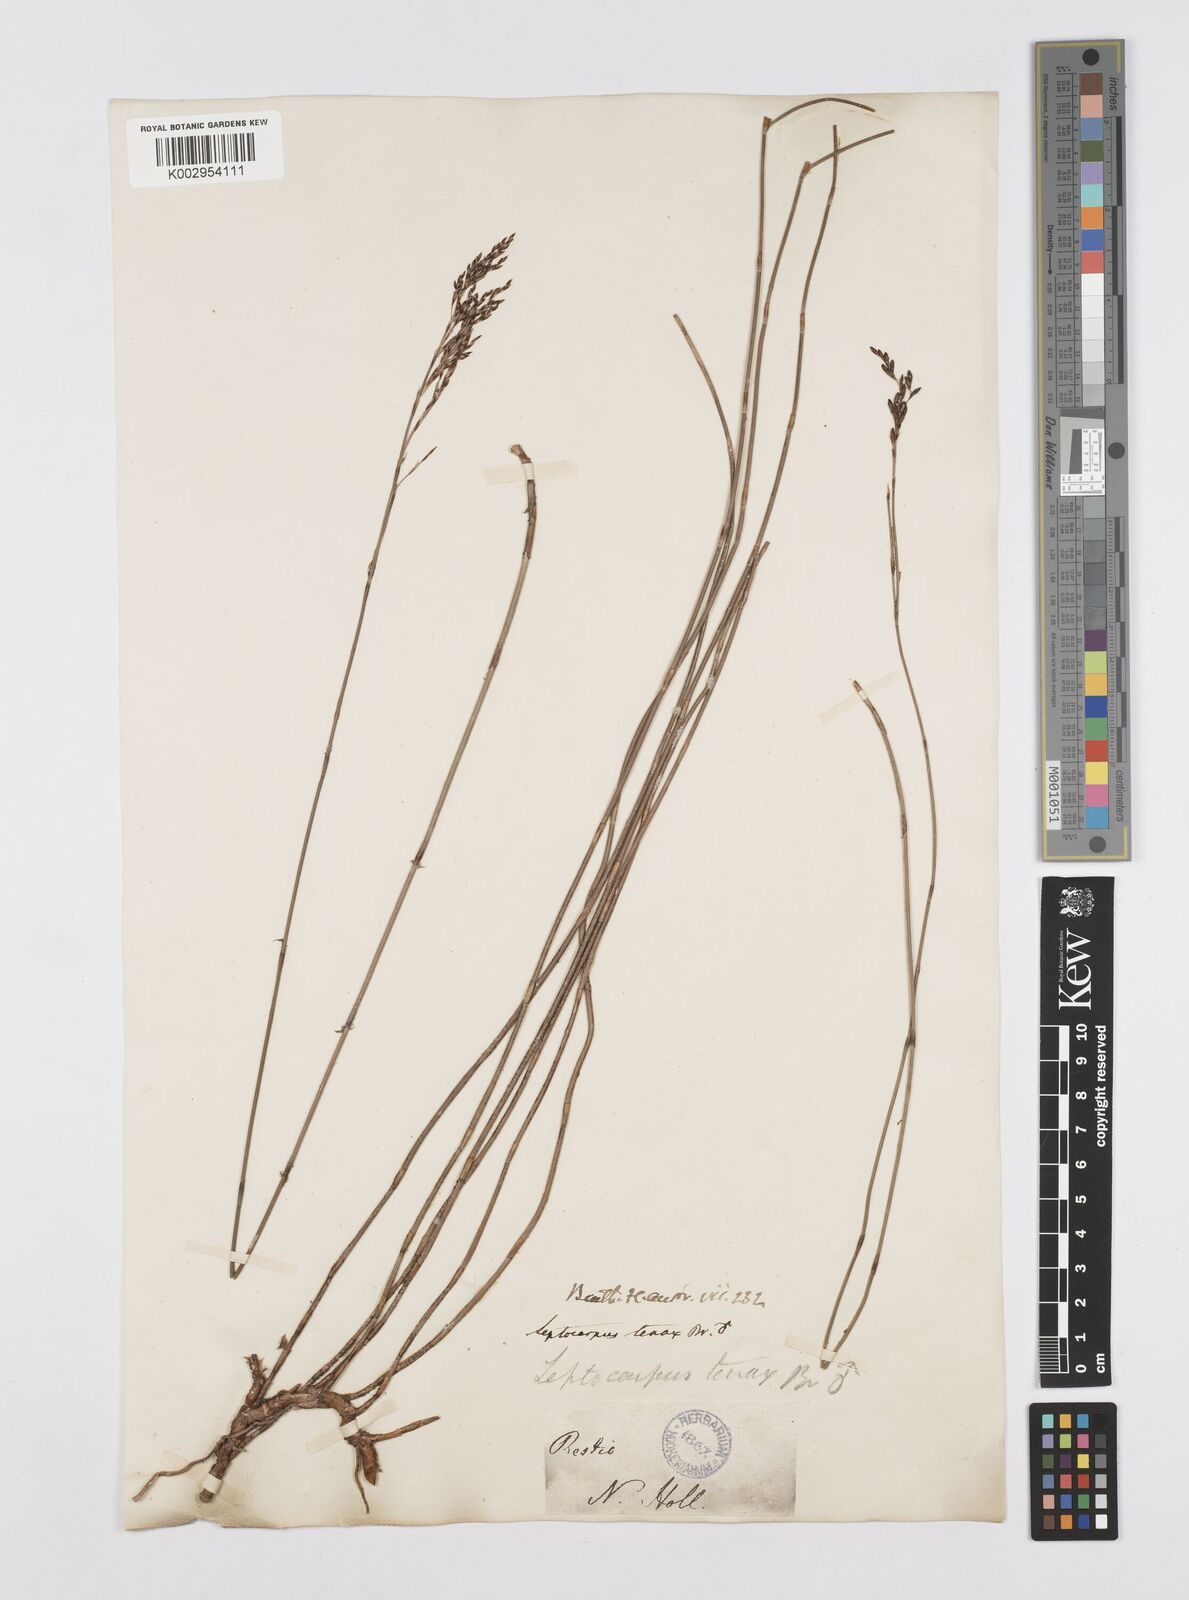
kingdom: Plantae
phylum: Tracheophyta
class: Liliopsida
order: Poales
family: Restionaceae
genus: Leptocarpus
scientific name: Leptocarpus tenax
